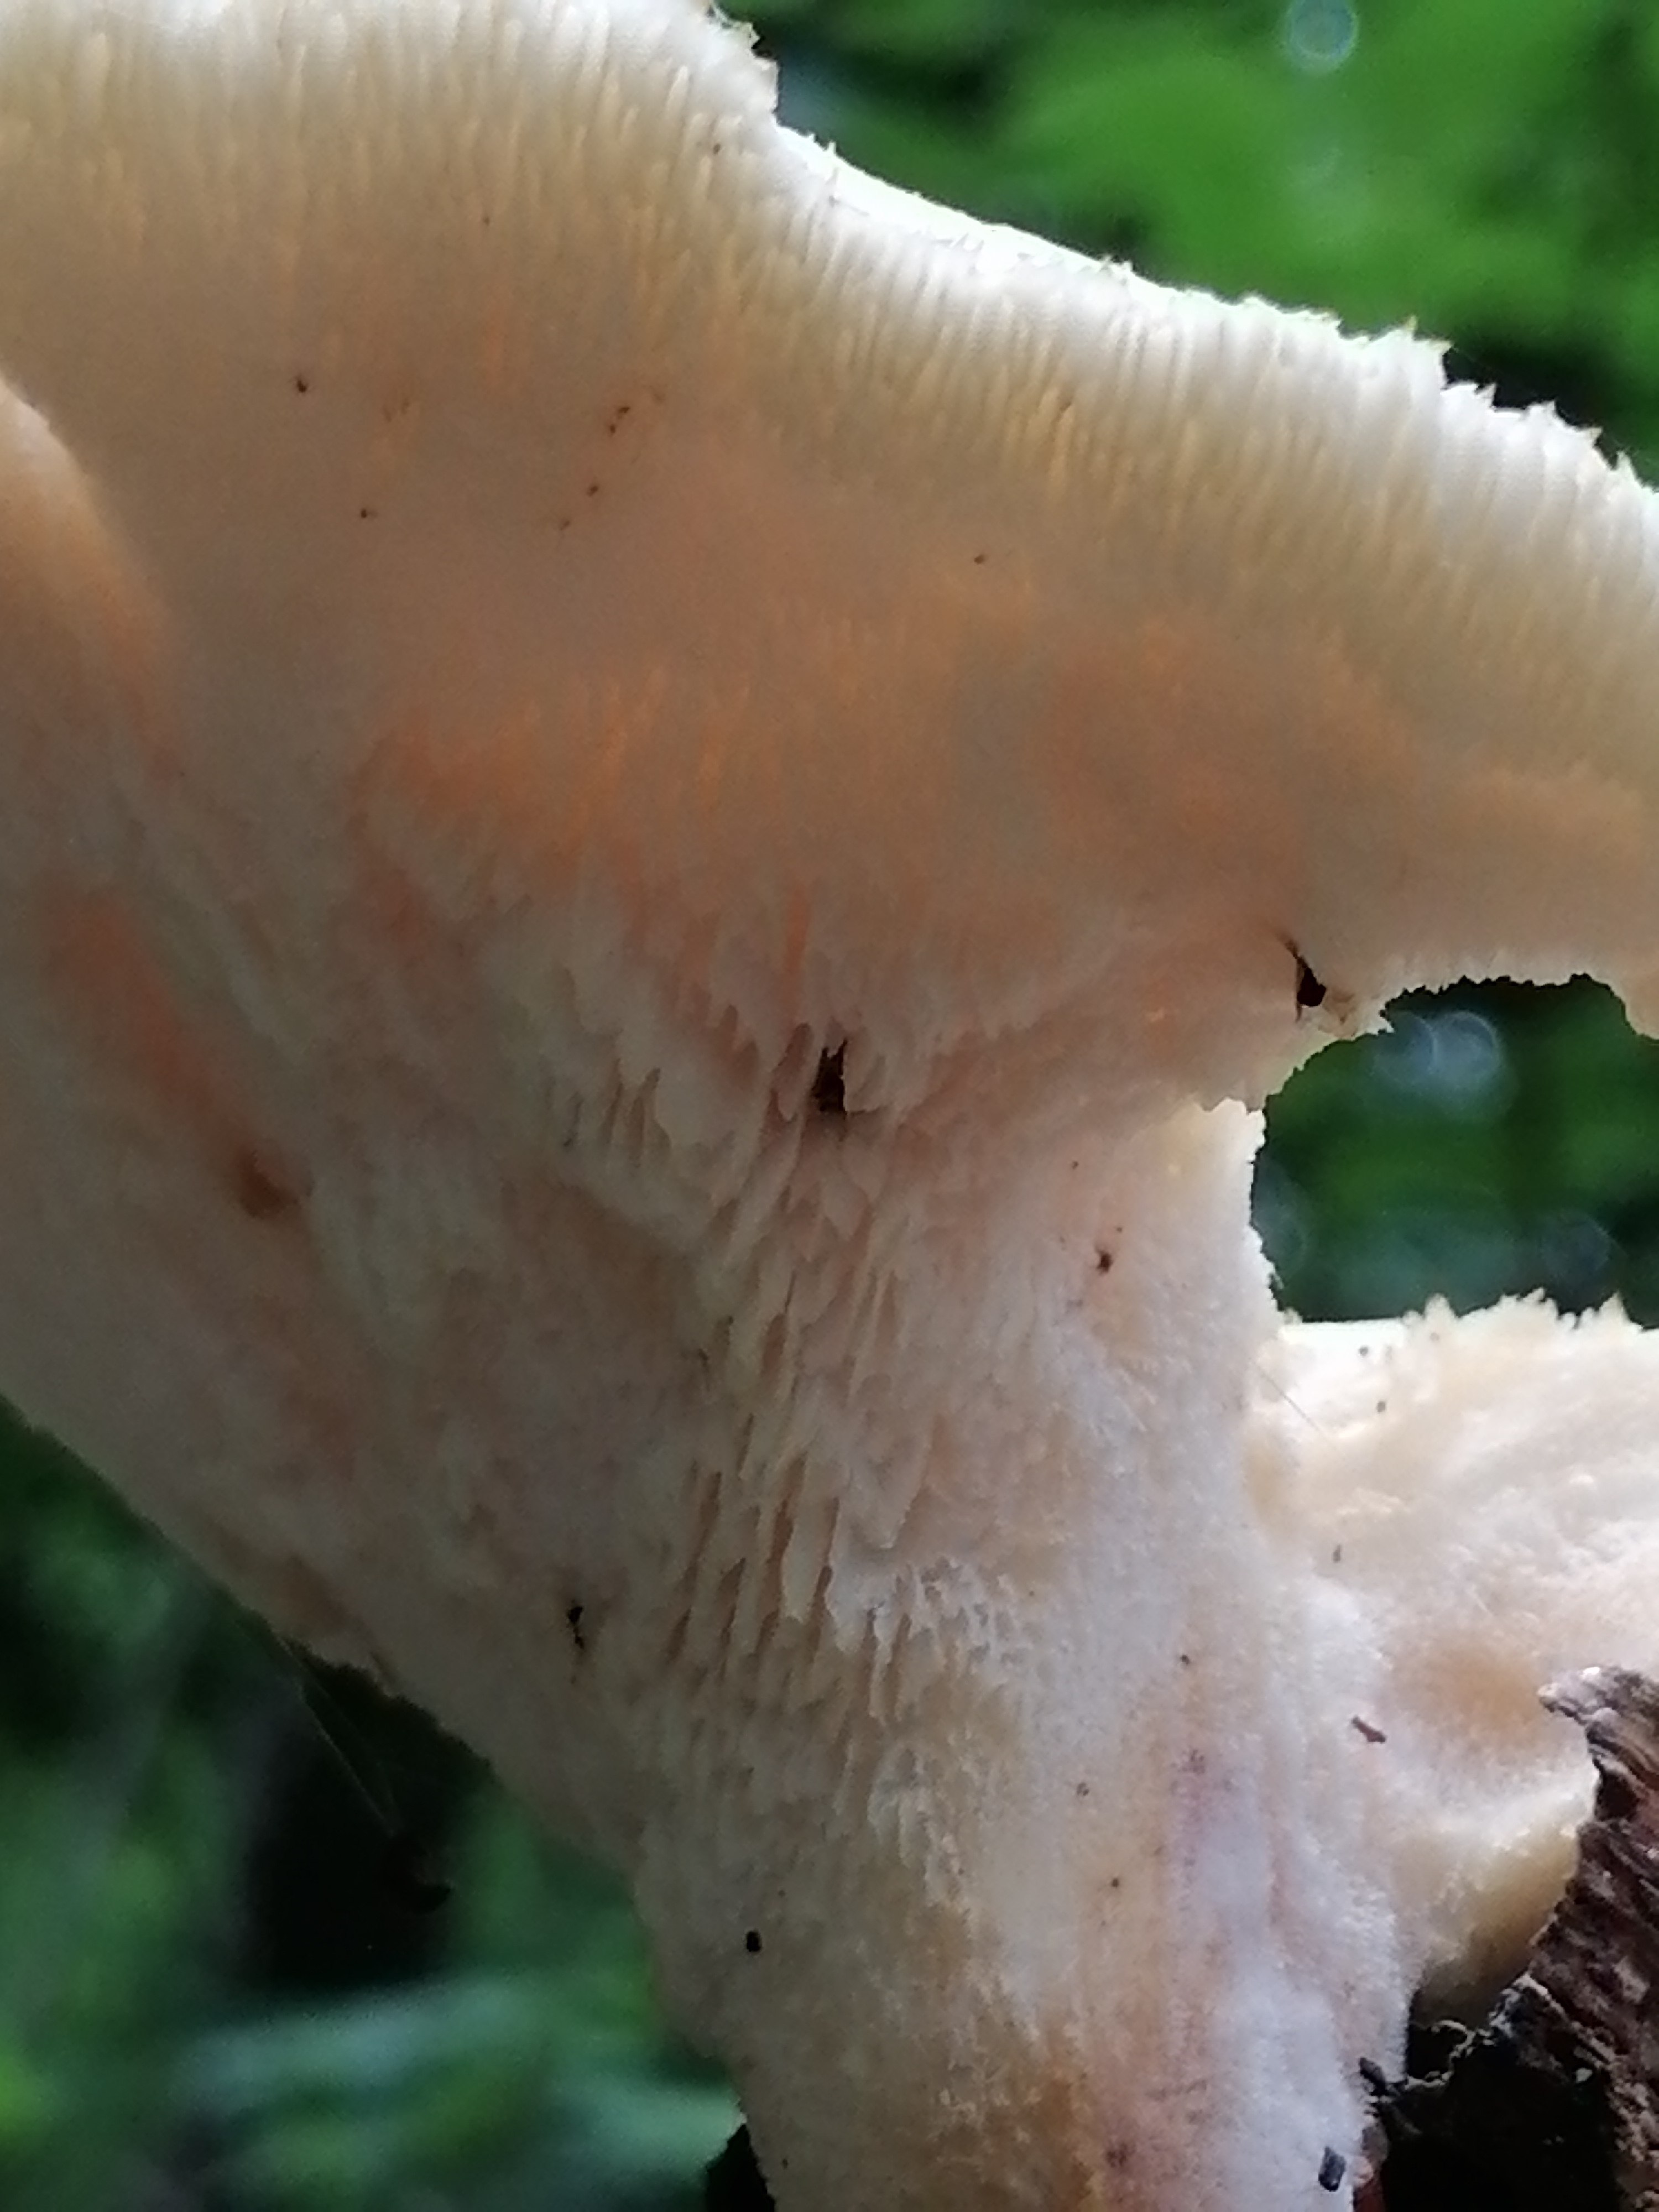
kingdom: Fungi
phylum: Basidiomycota
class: Agaricomycetes
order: Polyporales
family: Polyporaceae
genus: Polyporus
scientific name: Polyporus tuberaster
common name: knoldet stilkporesvamp
